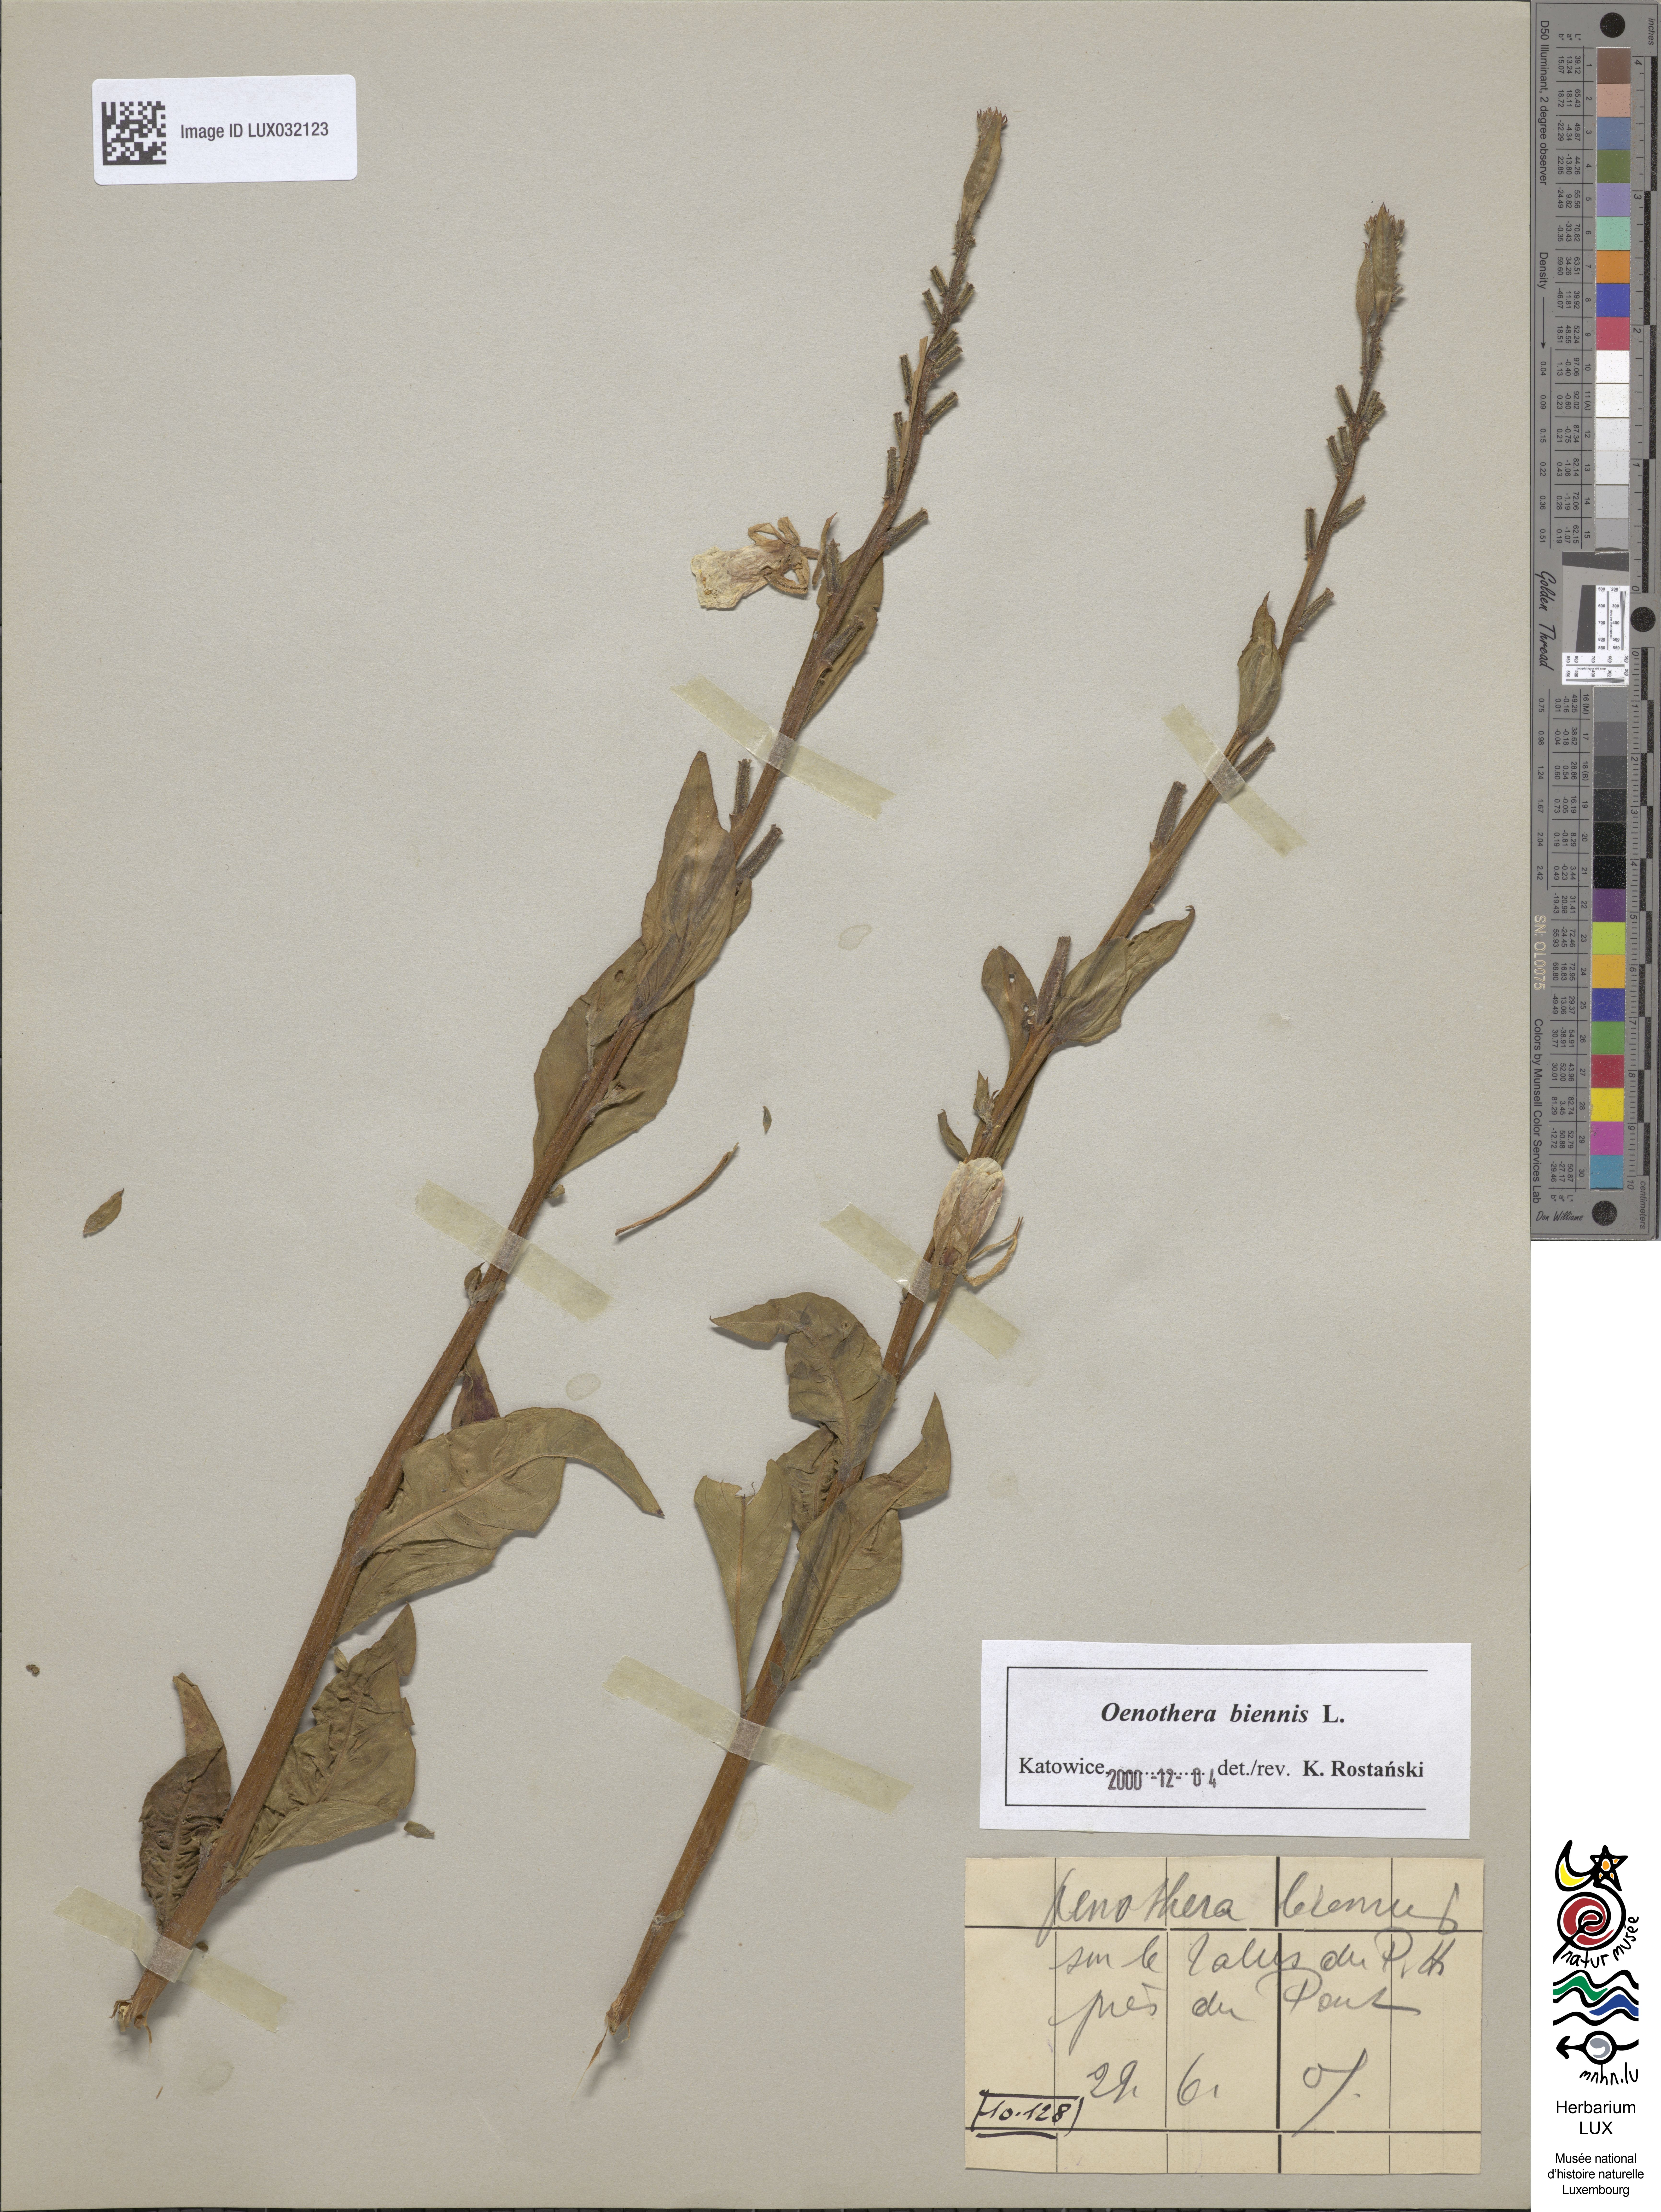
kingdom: Plantae
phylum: Tracheophyta
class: Magnoliopsida
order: Myrtales
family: Onagraceae
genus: Oenothera
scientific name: Oenothera biennis
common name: Common evening-primrose
